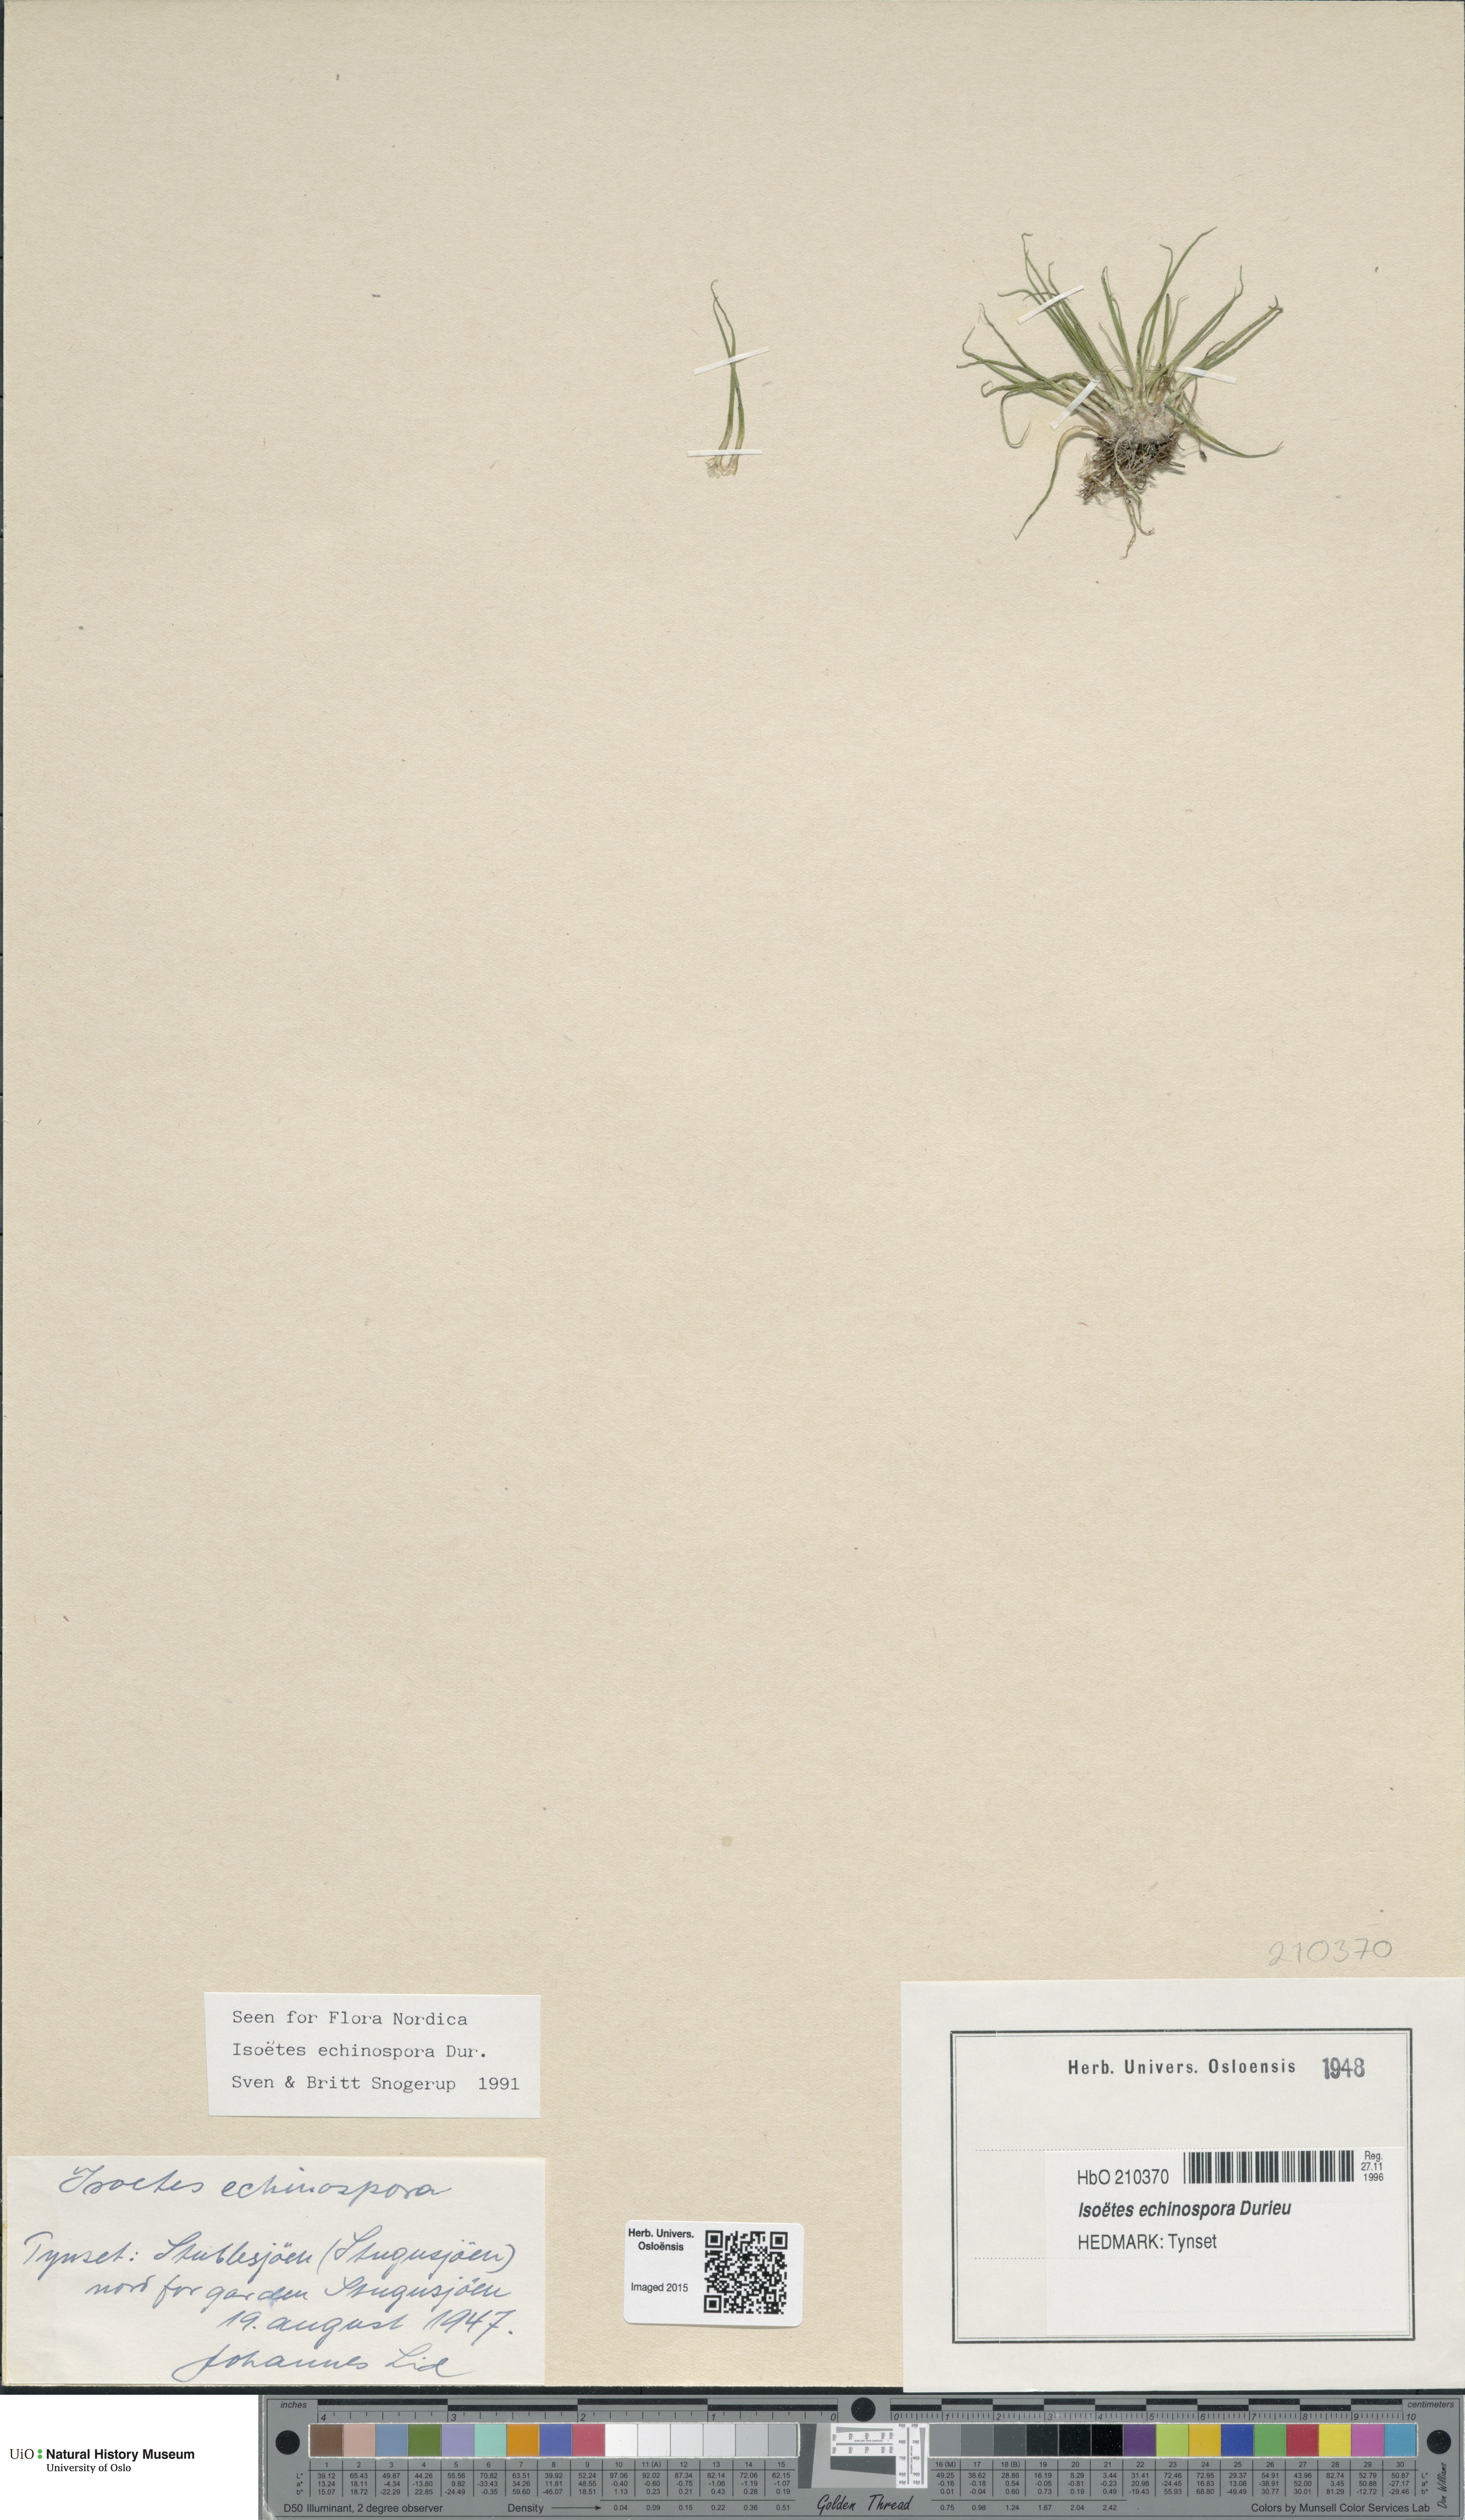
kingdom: Plantae
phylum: Tracheophyta
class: Lycopodiopsida
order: Isoetales
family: Isoetaceae
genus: Isoetes
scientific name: Isoetes echinospora
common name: Spring quillwort
